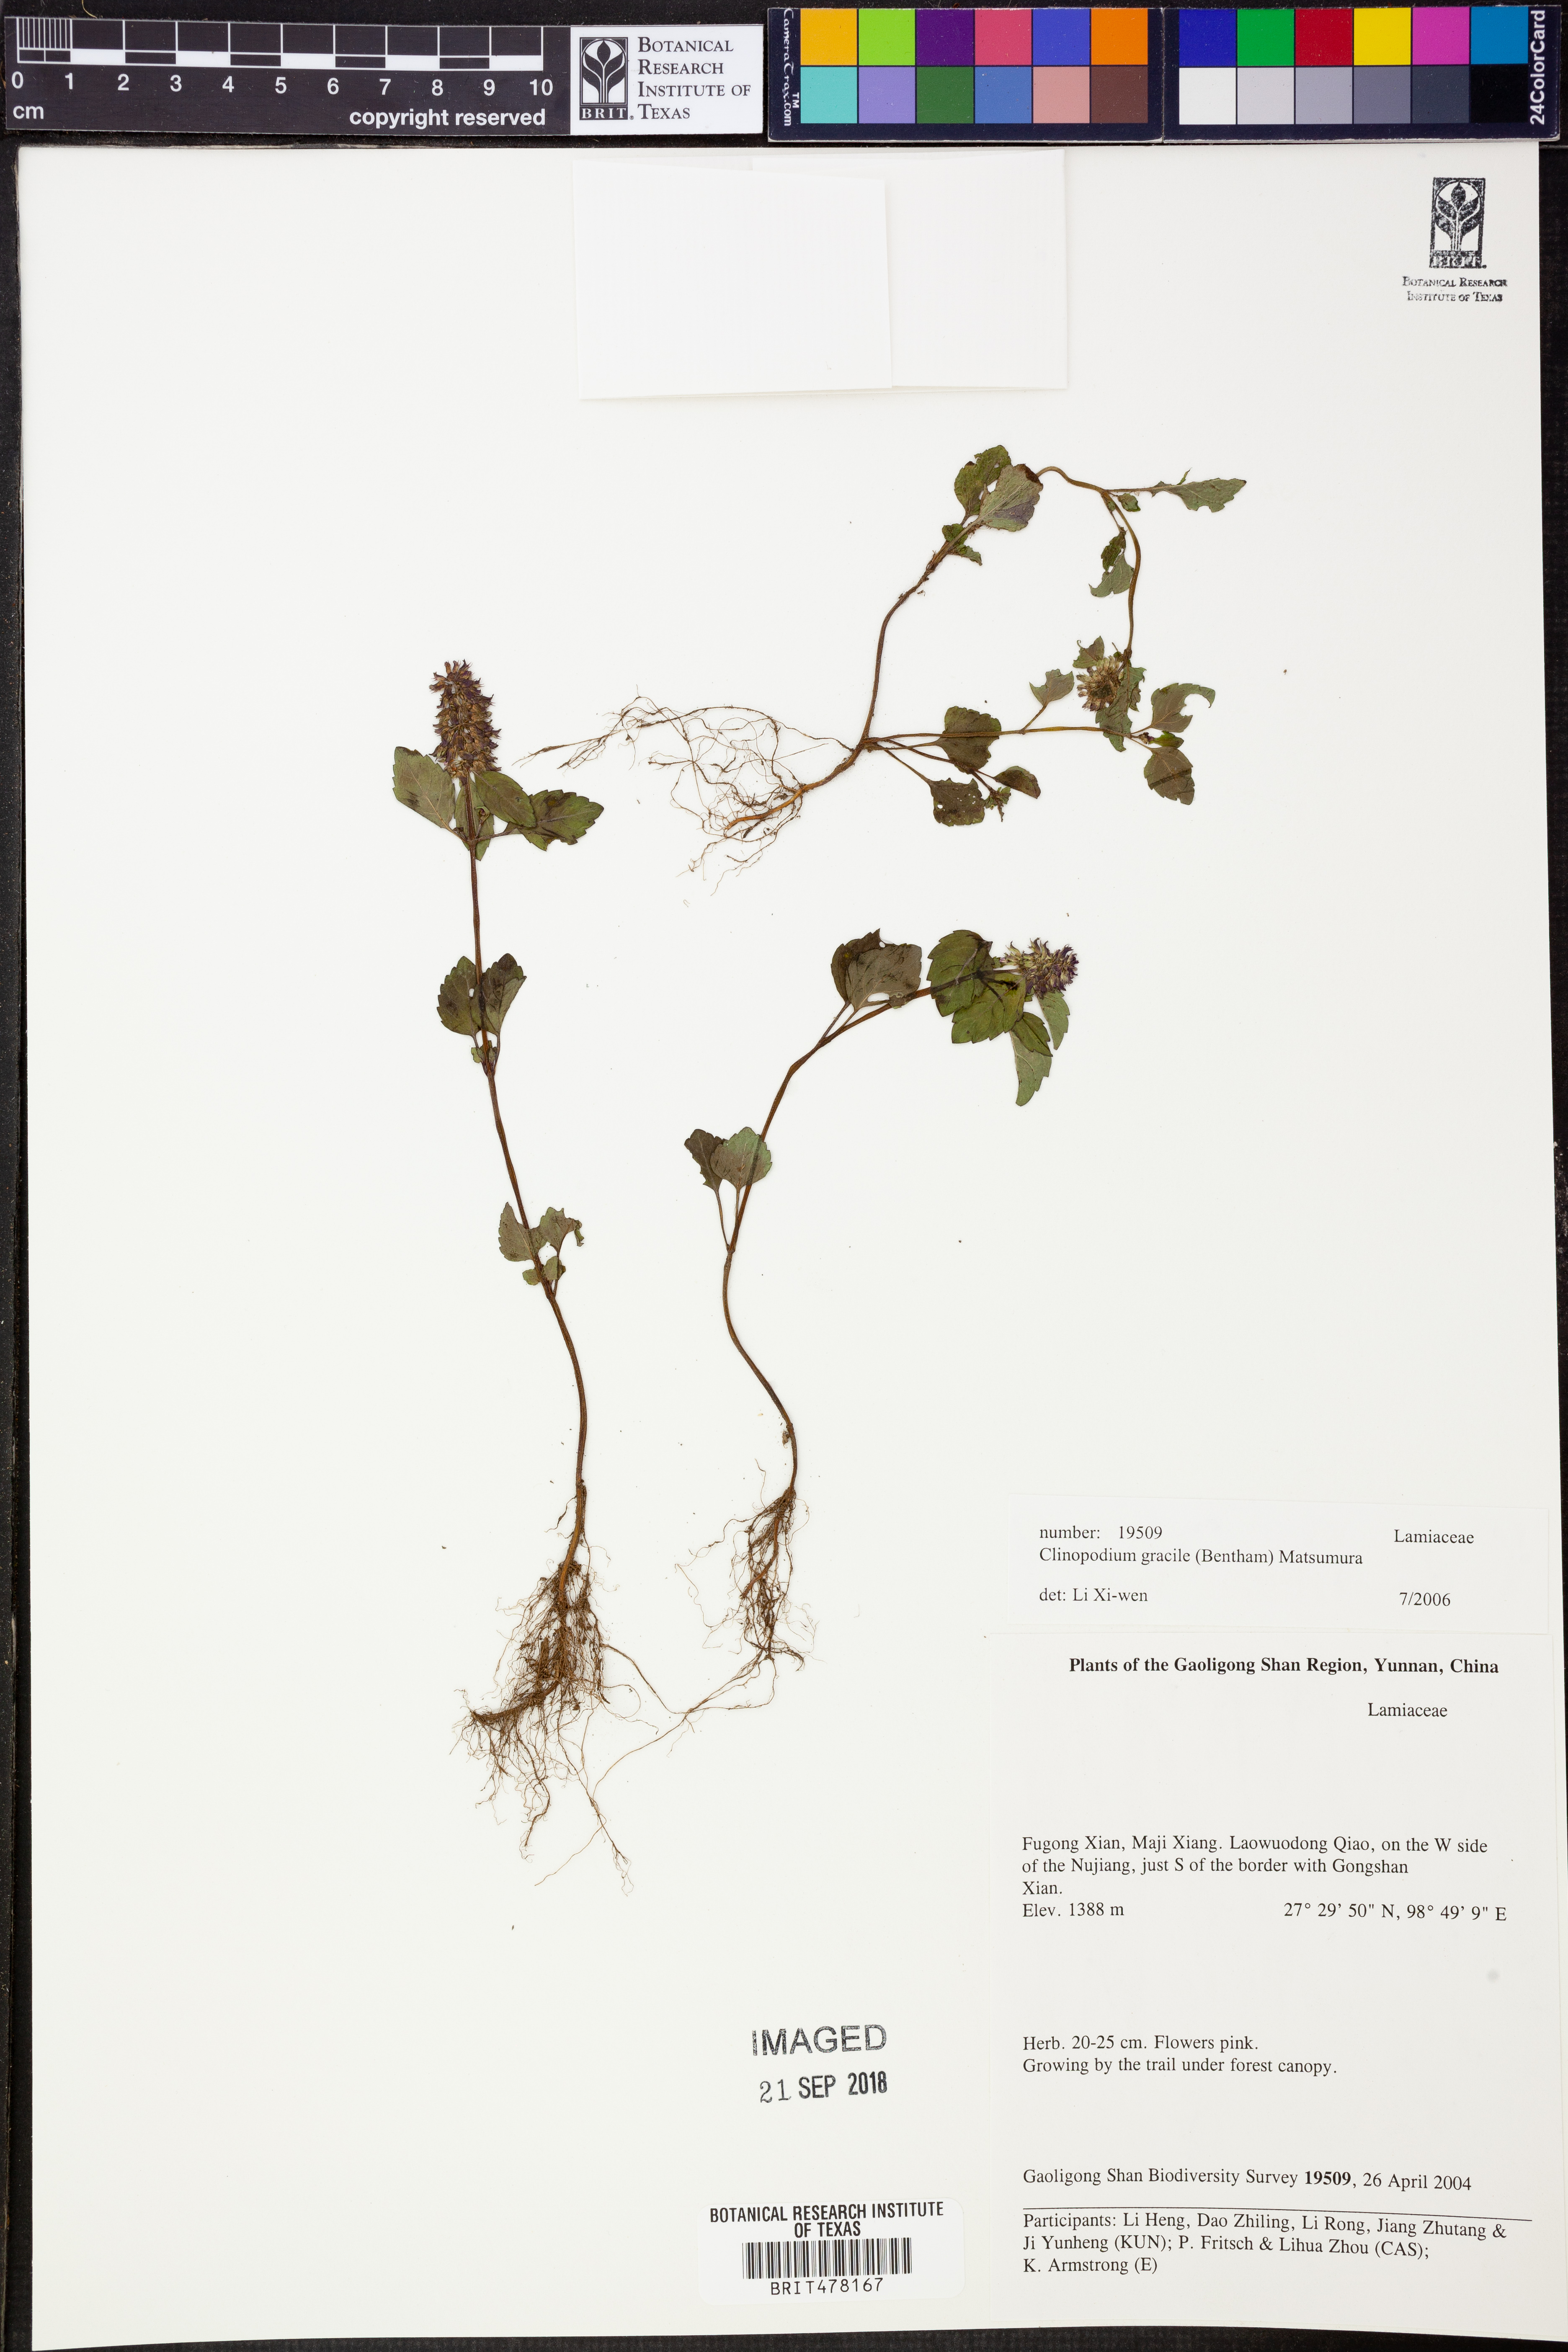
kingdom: Plantae
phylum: Tracheophyta
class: Magnoliopsida
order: Lamiales
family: Lamiaceae
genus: Clinopodium
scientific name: Clinopodium gracile
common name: Slender wild basil
